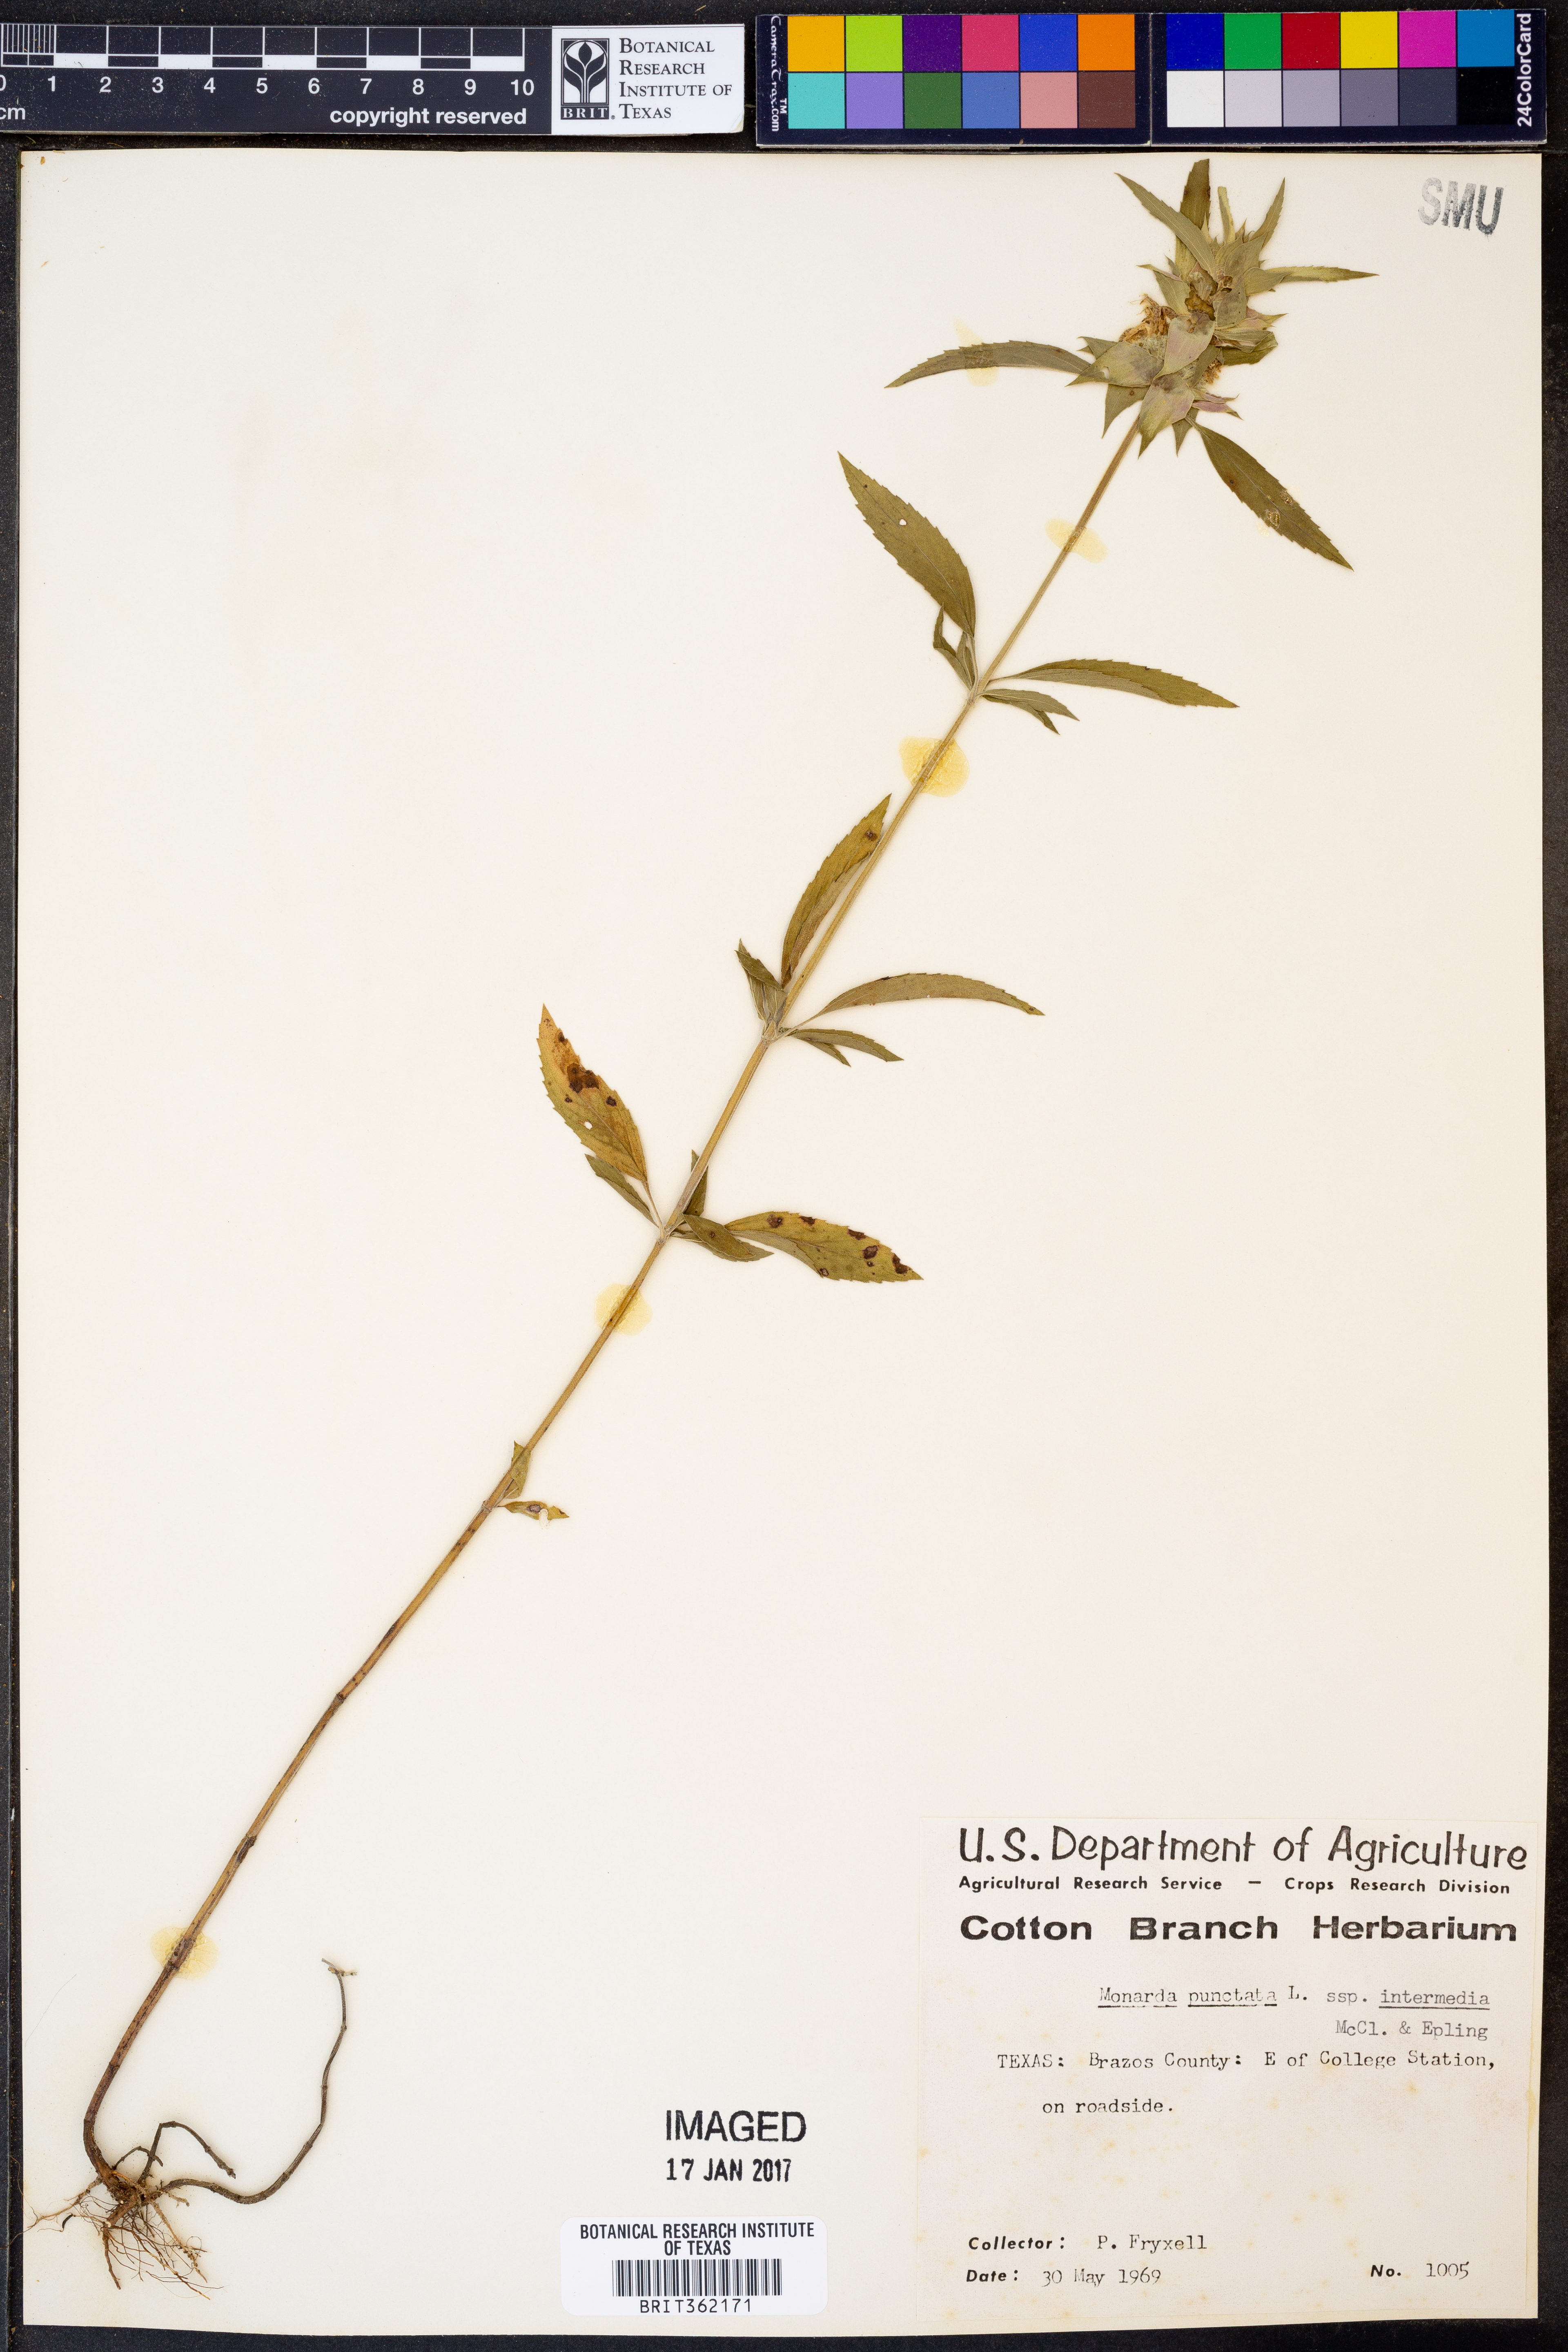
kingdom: Plantae
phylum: Tracheophyta
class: Magnoliopsida
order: Lamiales
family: Lamiaceae
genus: Monarda
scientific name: Monarda punctata
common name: Dotted monarda
